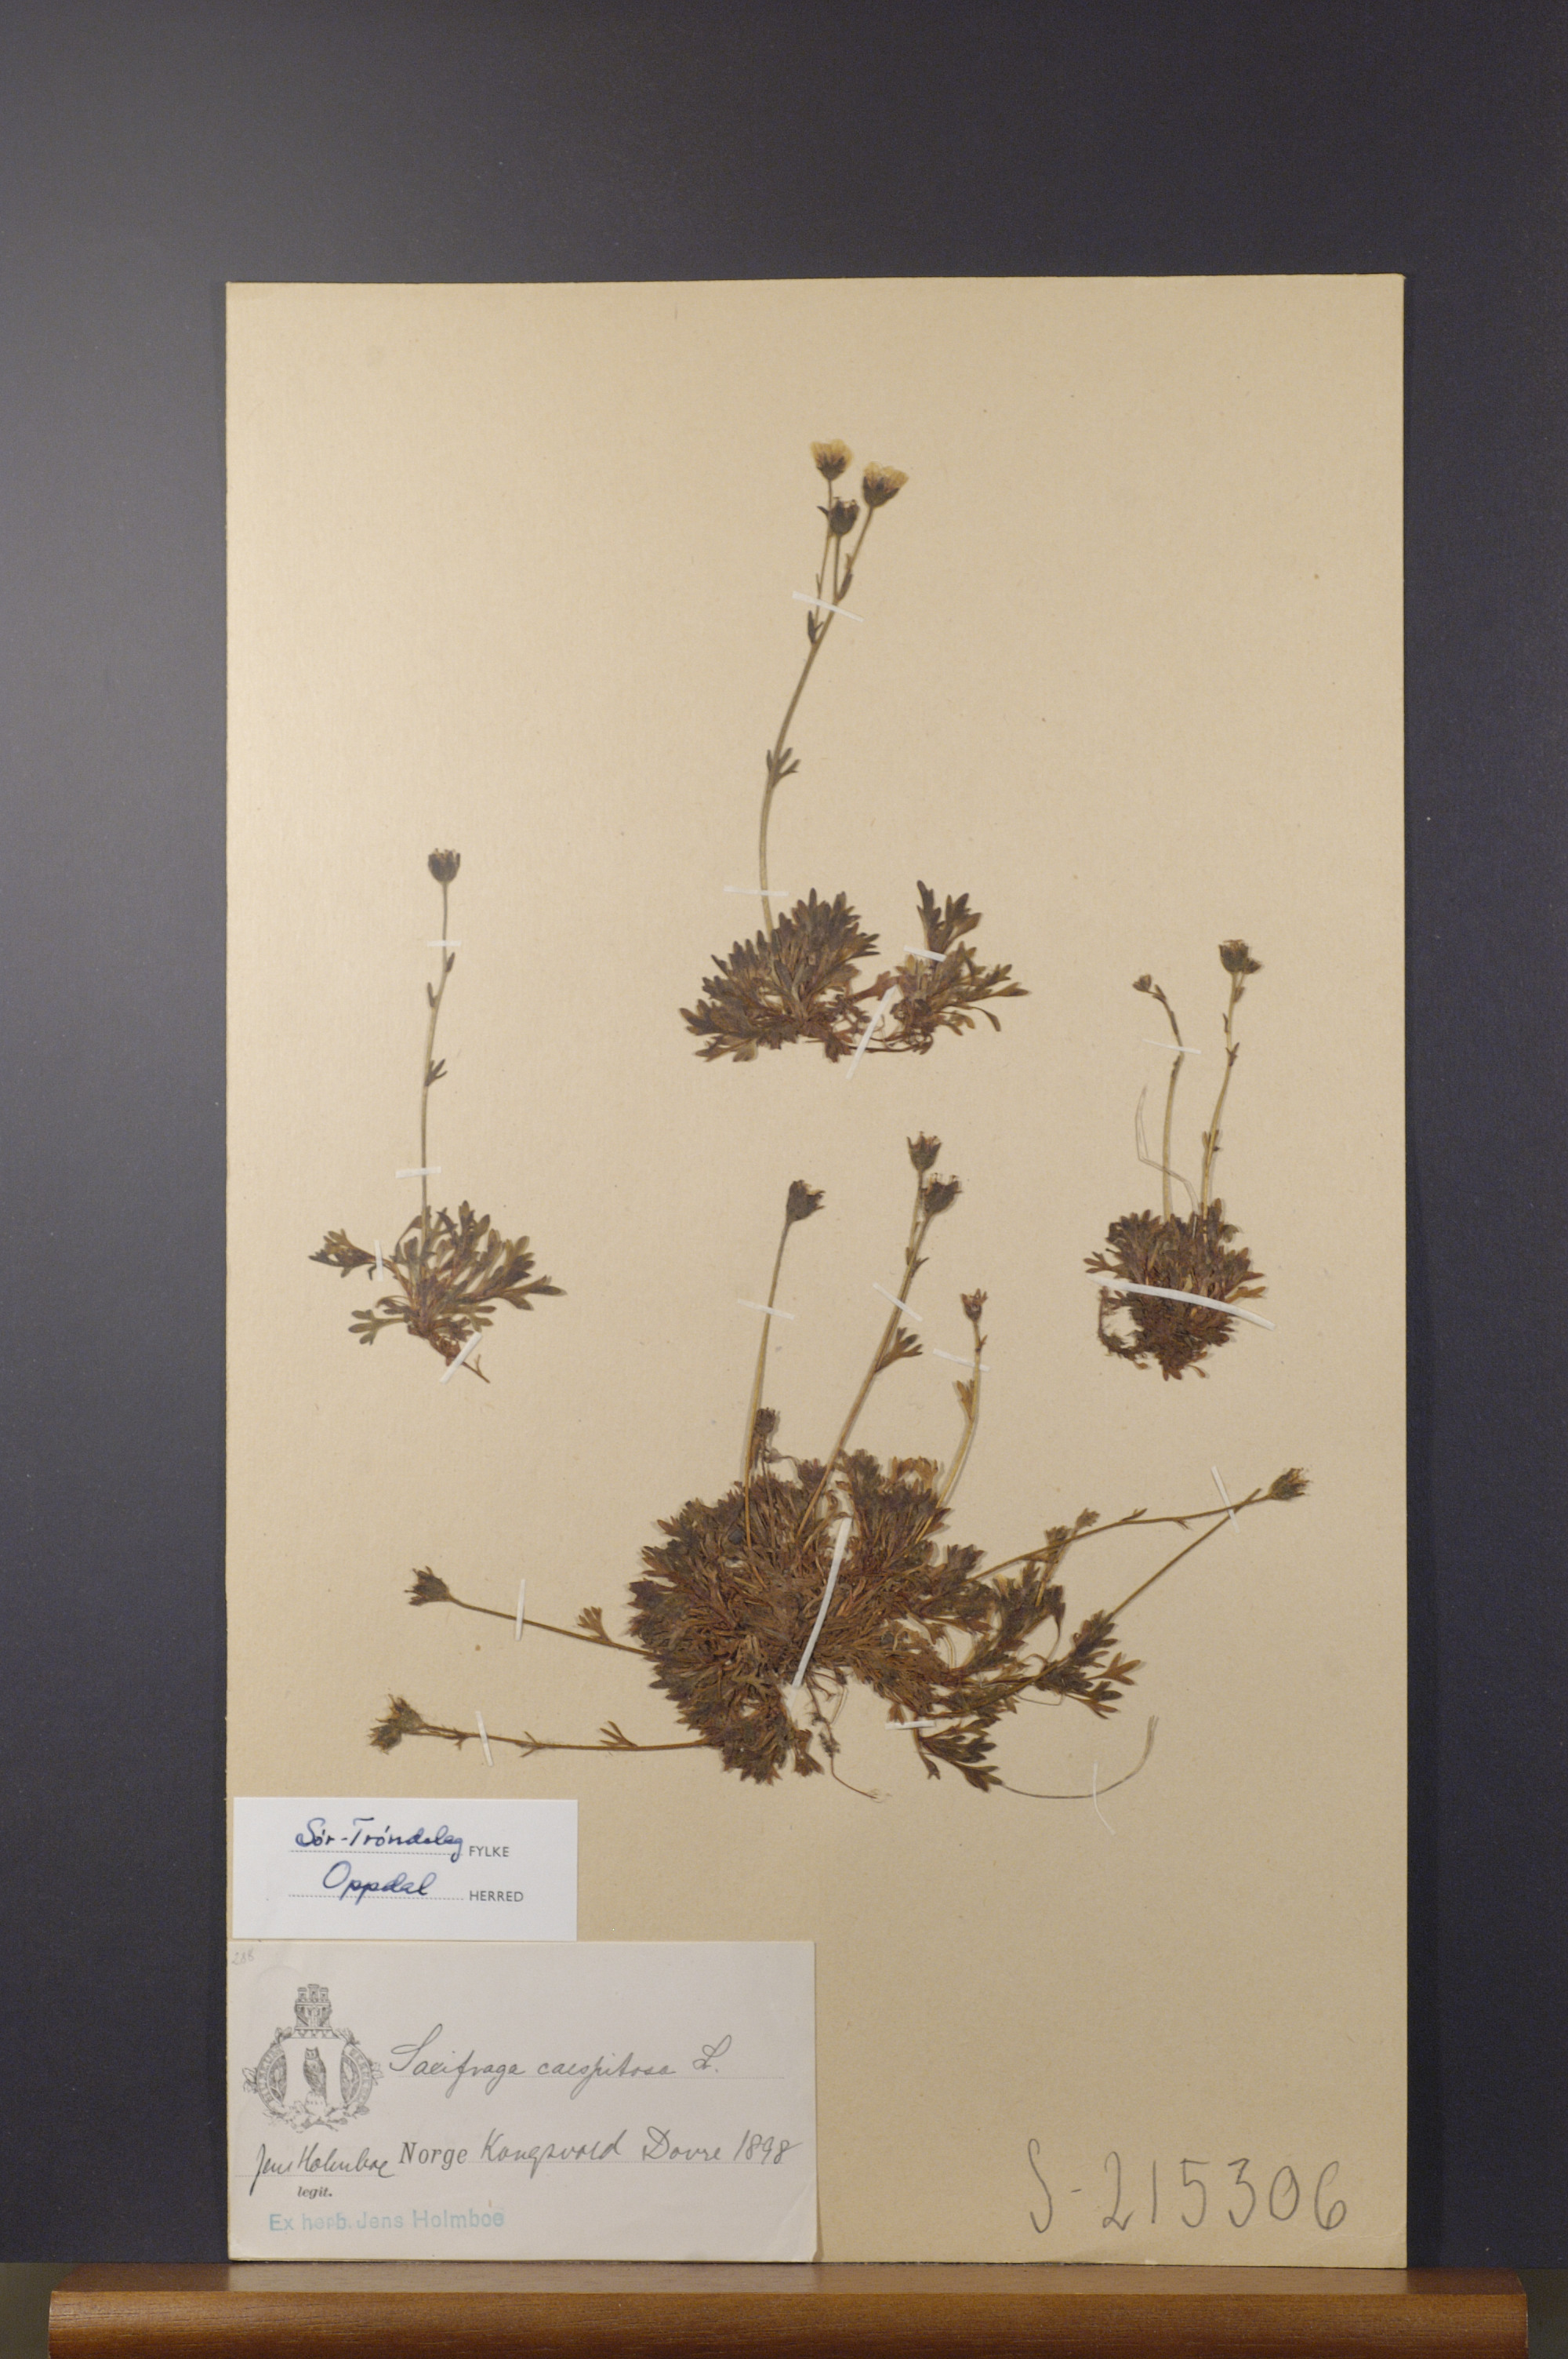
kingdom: Plantae
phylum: Tracheophyta
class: Magnoliopsida
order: Saxifragales
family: Saxifragaceae
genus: Saxifraga
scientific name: Saxifraga cespitosa
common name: Tufted saxifrage
